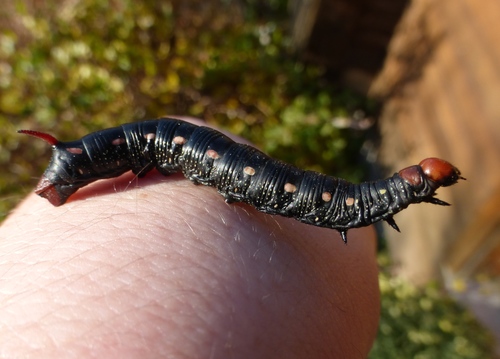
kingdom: Animalia
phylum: Arthropoda
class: Insecta
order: Lepidoptera
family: Sphingidae
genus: Hyles
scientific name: Hyles gallii
